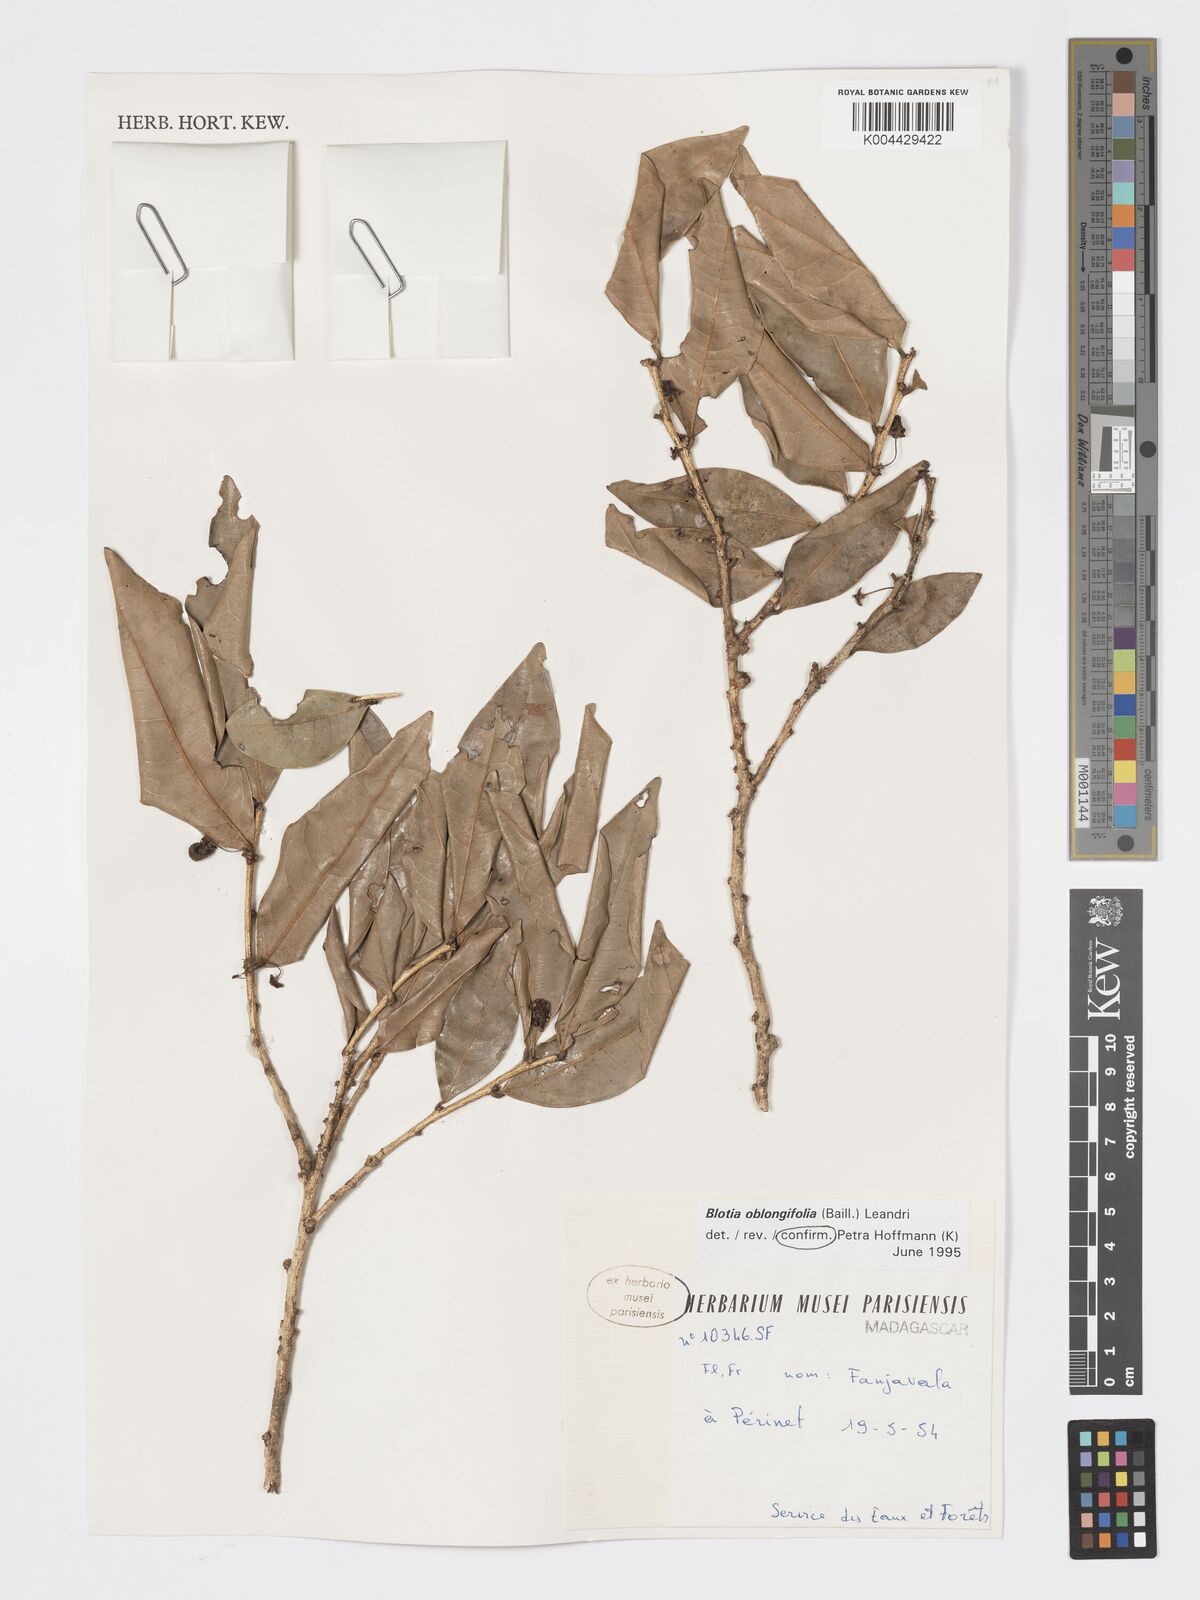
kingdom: Plantae
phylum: Tracheophyta
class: Magnoliopsida
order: Malpighiales
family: Phyllanthaceae
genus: Wielandia
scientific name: Wielandia oblongifolia
